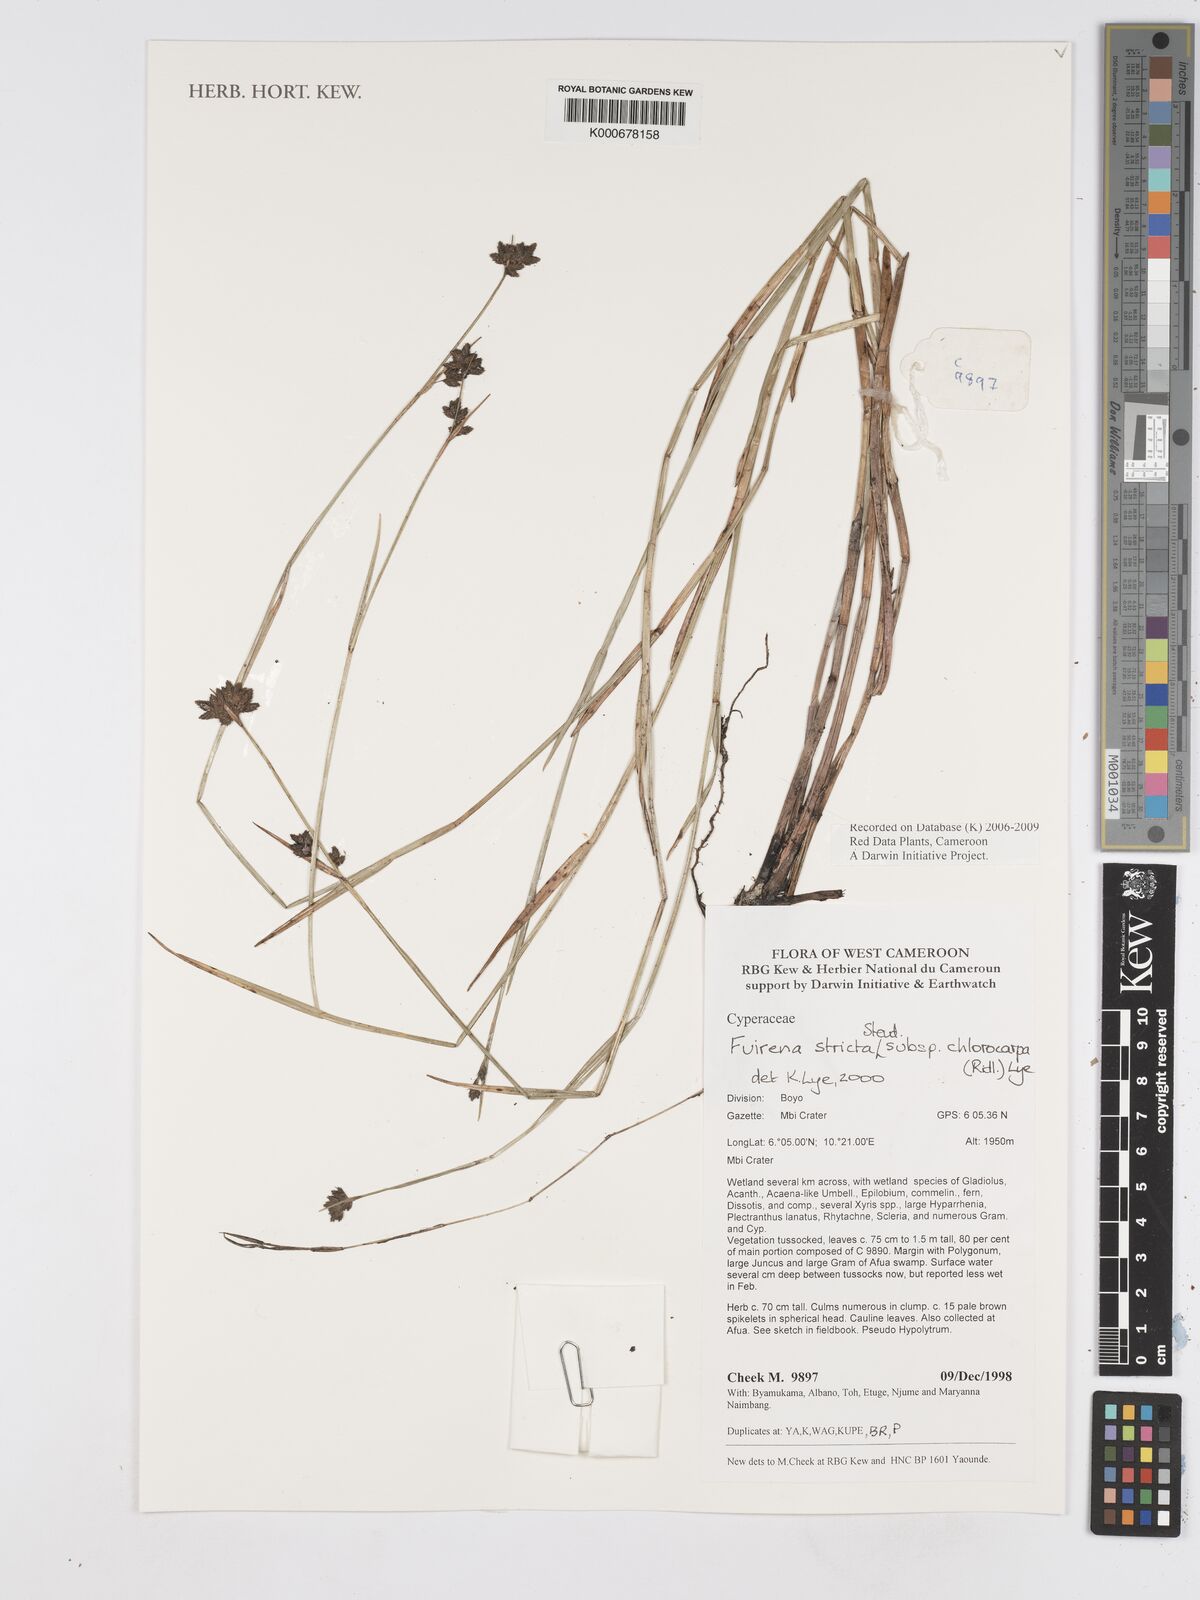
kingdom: Plantae
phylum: Tracheophyta
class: Liliopsida
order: Poales
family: Cyperaceae
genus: Fuirena
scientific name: Fuirena stricta
